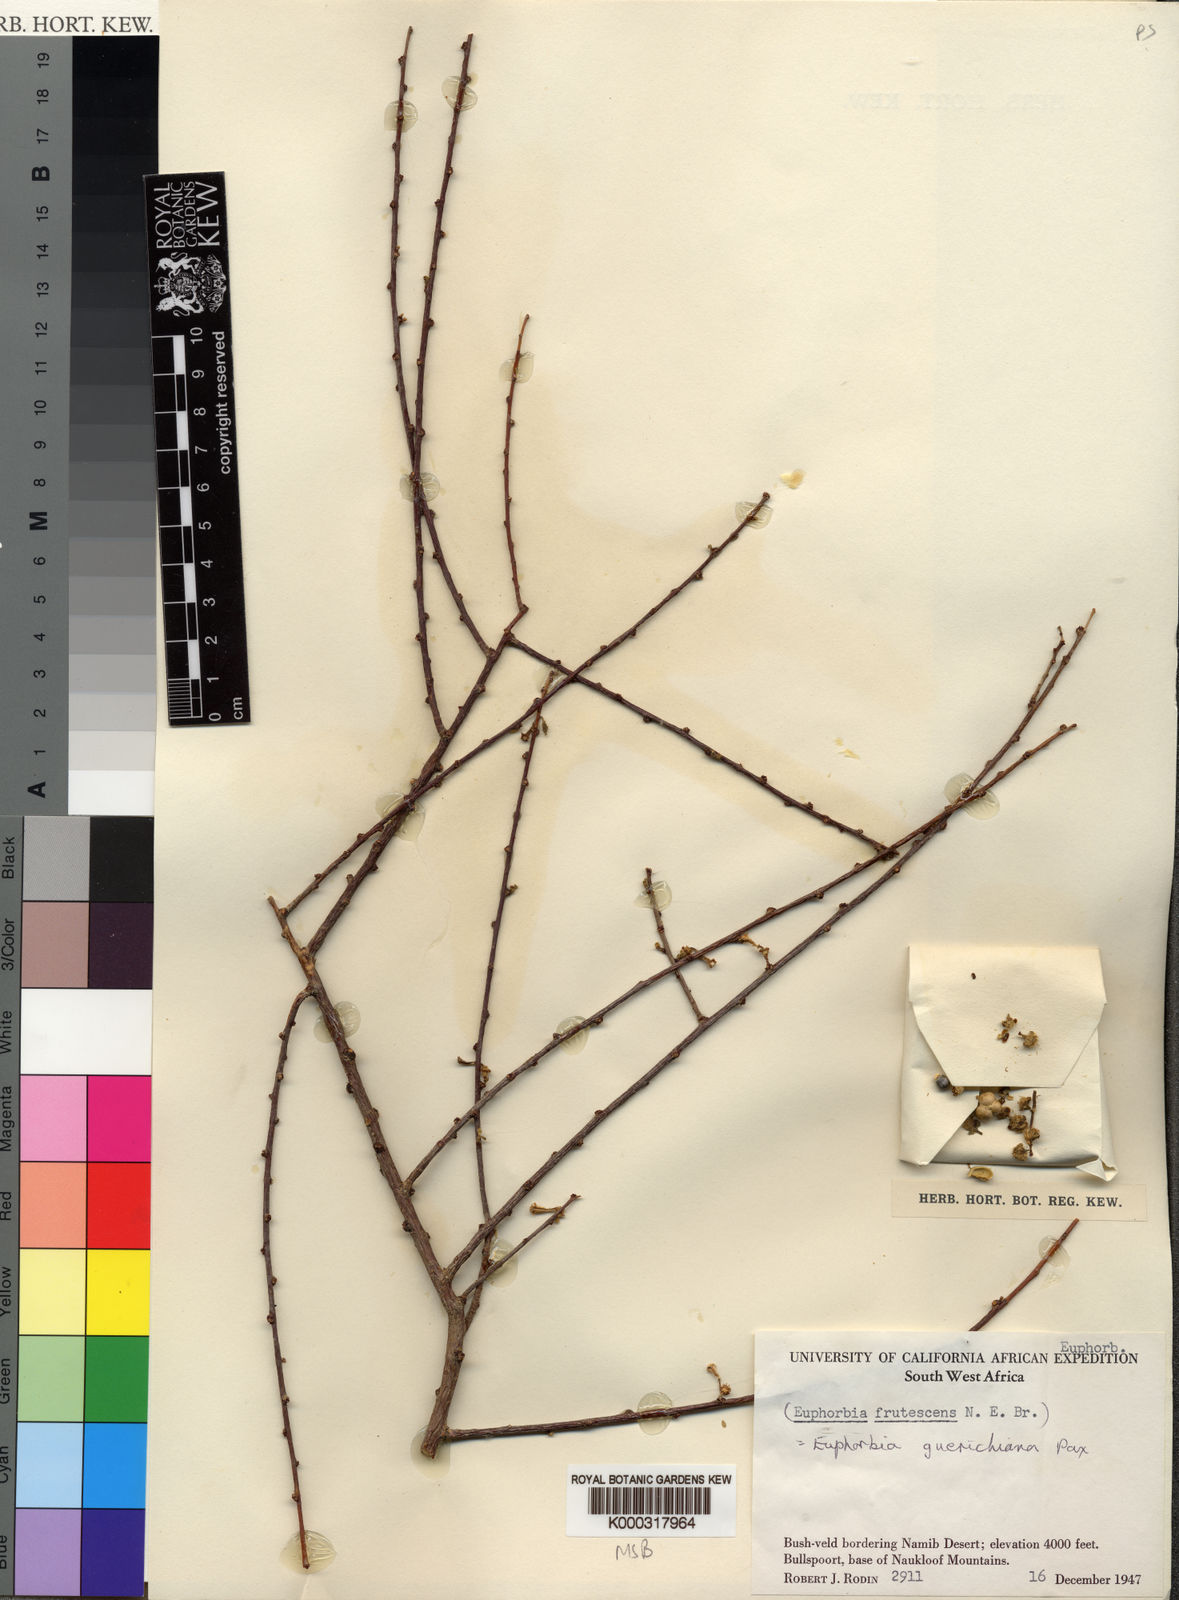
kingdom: Plantae
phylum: Tracheophyta
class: Magnoliopsida
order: Malpighiales
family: Euphorbiaceae
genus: Euphorbia
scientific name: Euphorbia
